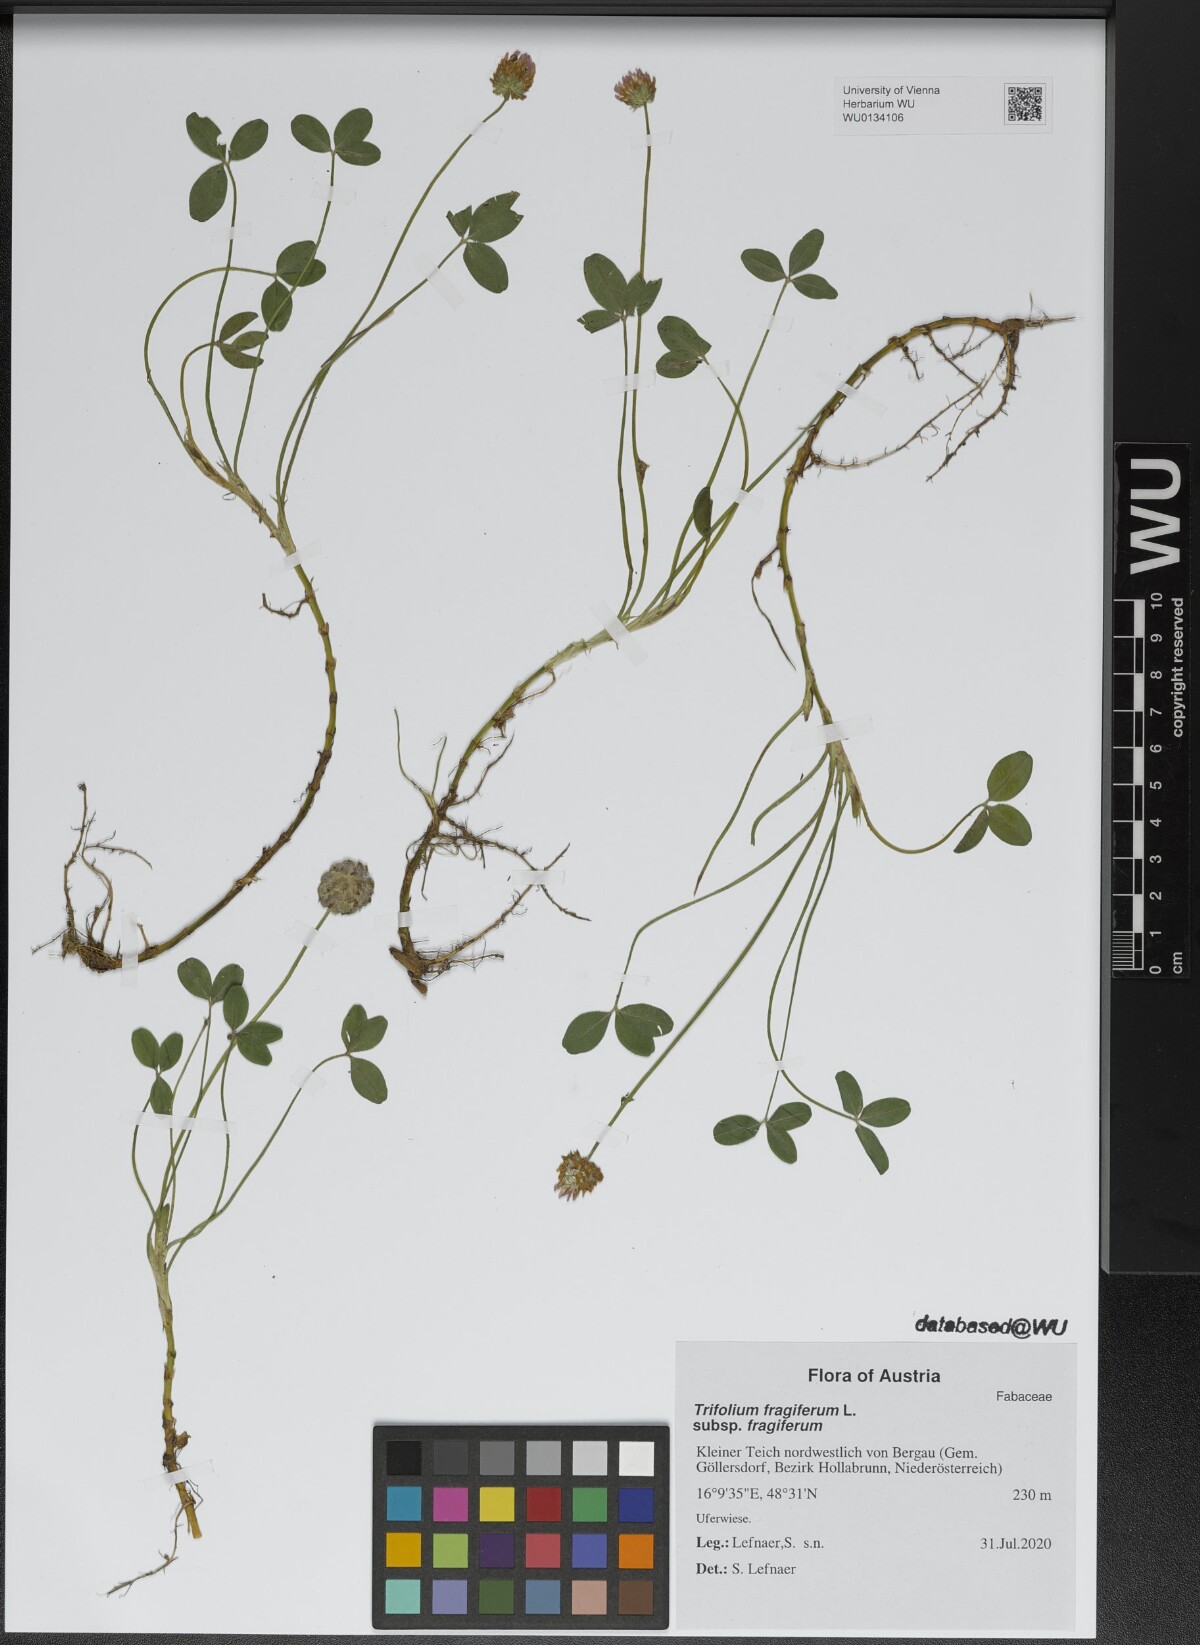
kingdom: Plantae
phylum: Tracheophyta
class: Magnoliopsida
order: Fabales
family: Fabaceae
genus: Trifolium
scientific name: Trifolium fragiferum
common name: Strawberry clover
